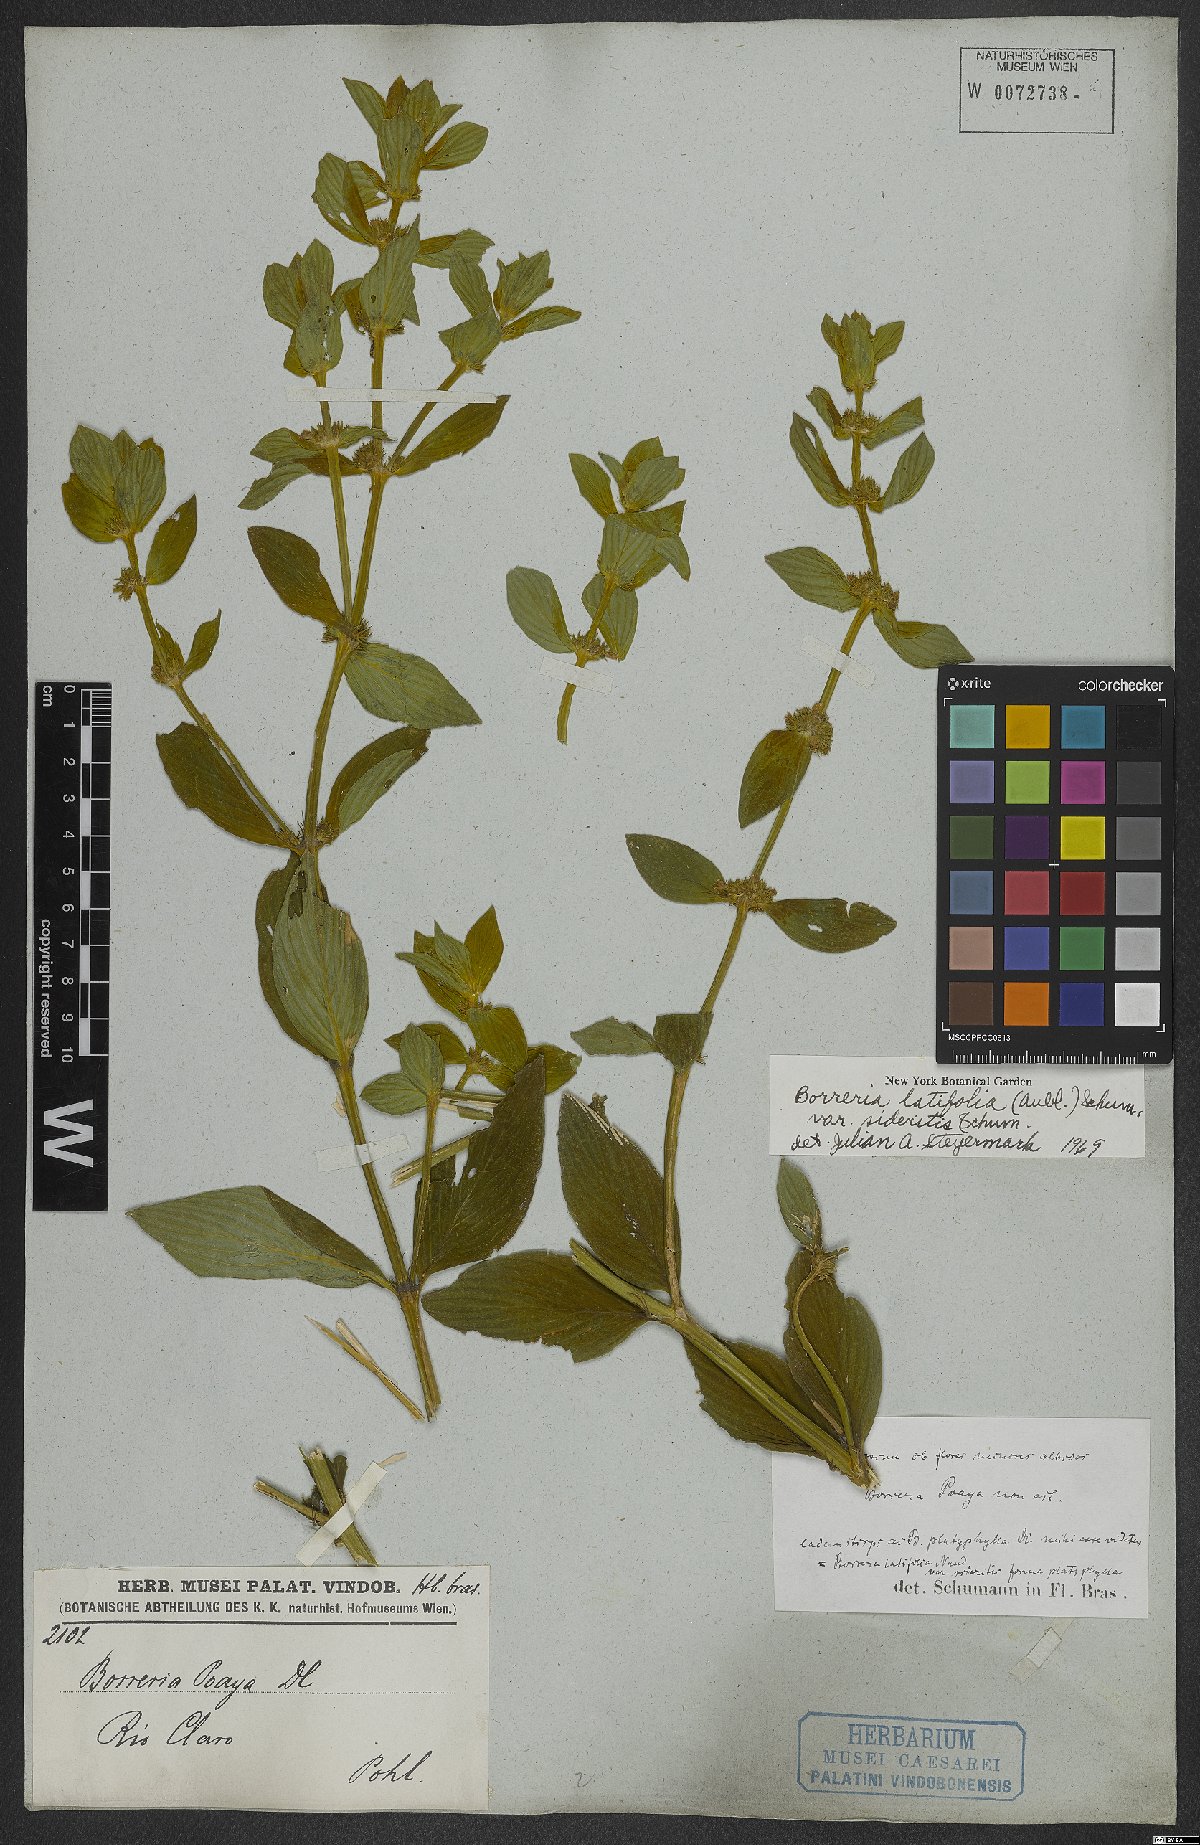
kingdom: Plantae
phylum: Tracheophyta
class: Magnoliopsida
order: Gentianales
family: Rubiaceae
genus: Spermacoce
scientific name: Spermacoce latifolia
